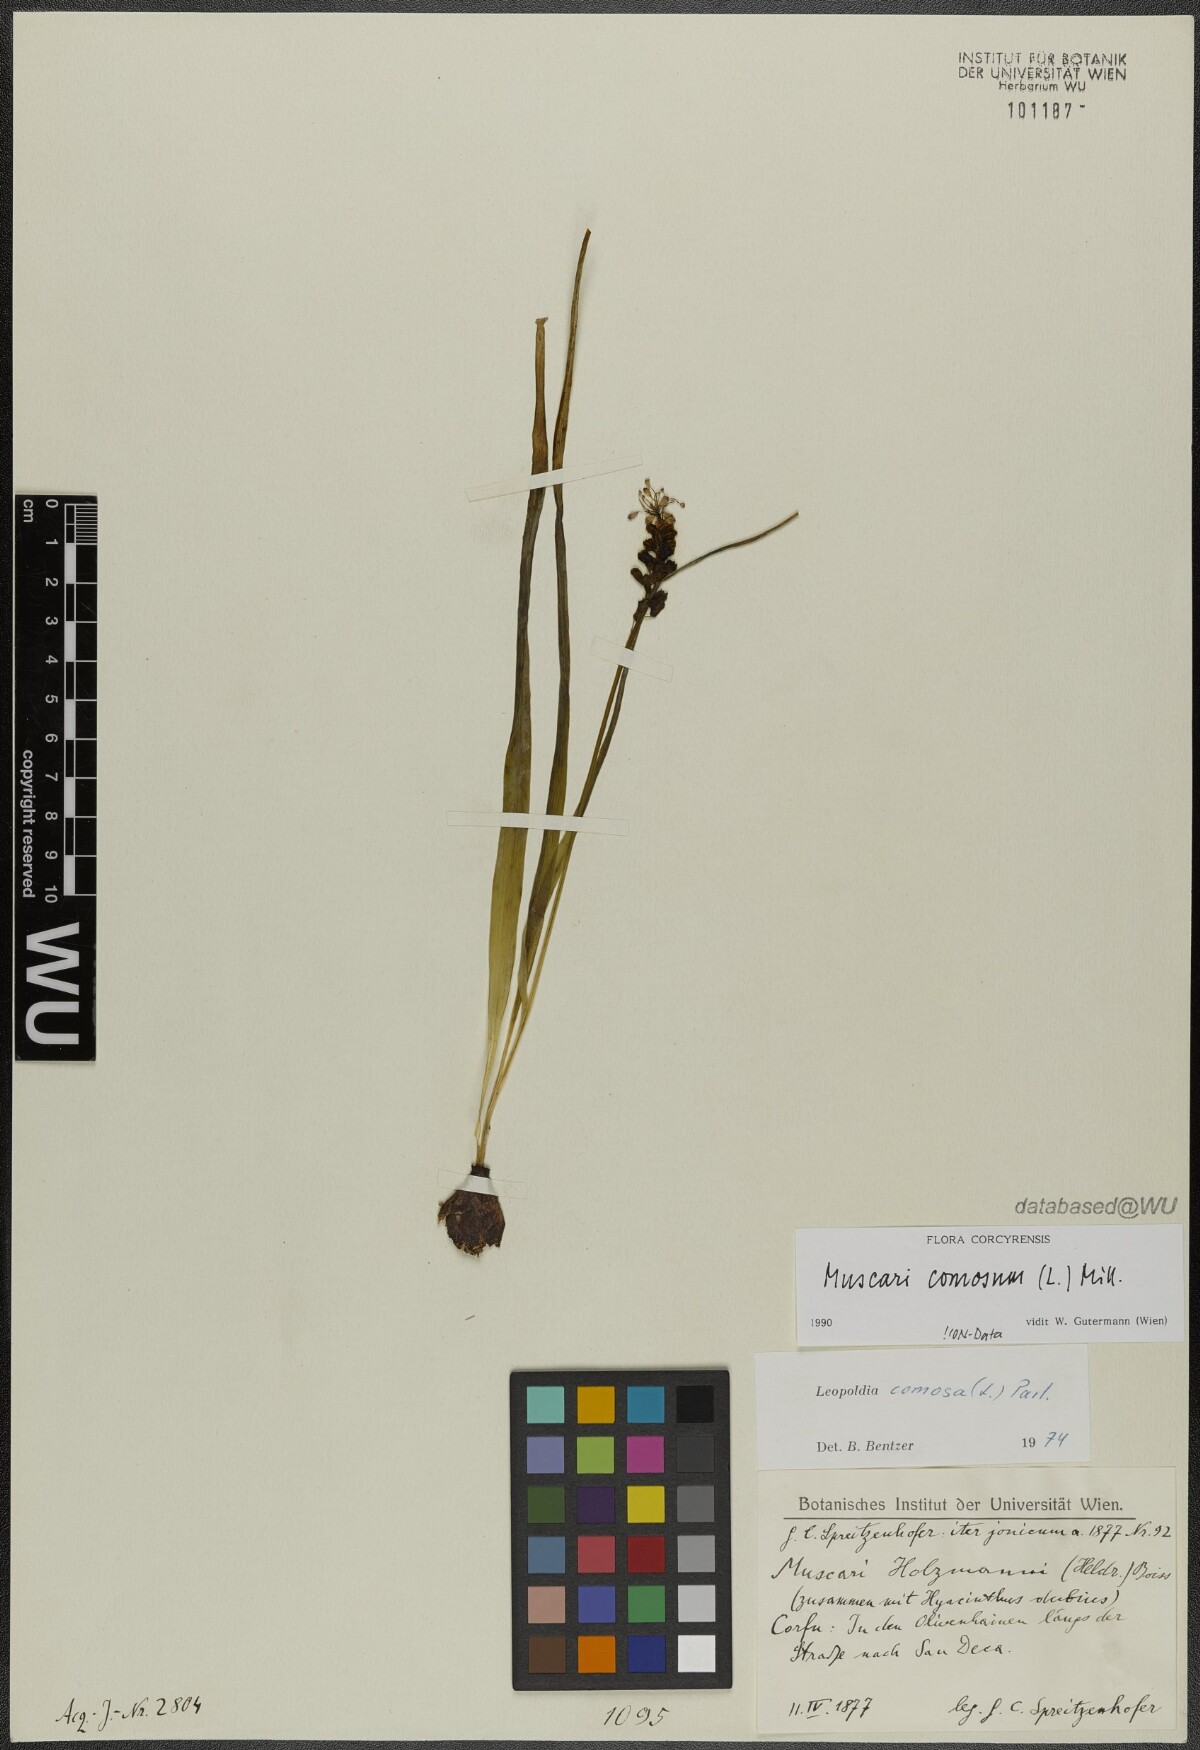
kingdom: Plantae
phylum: Tracheophyta
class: Liliopsida
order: Asparagales
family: Asparagaceae
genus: Muscari
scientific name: Muscari comosum
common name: Tassel hyacinth
